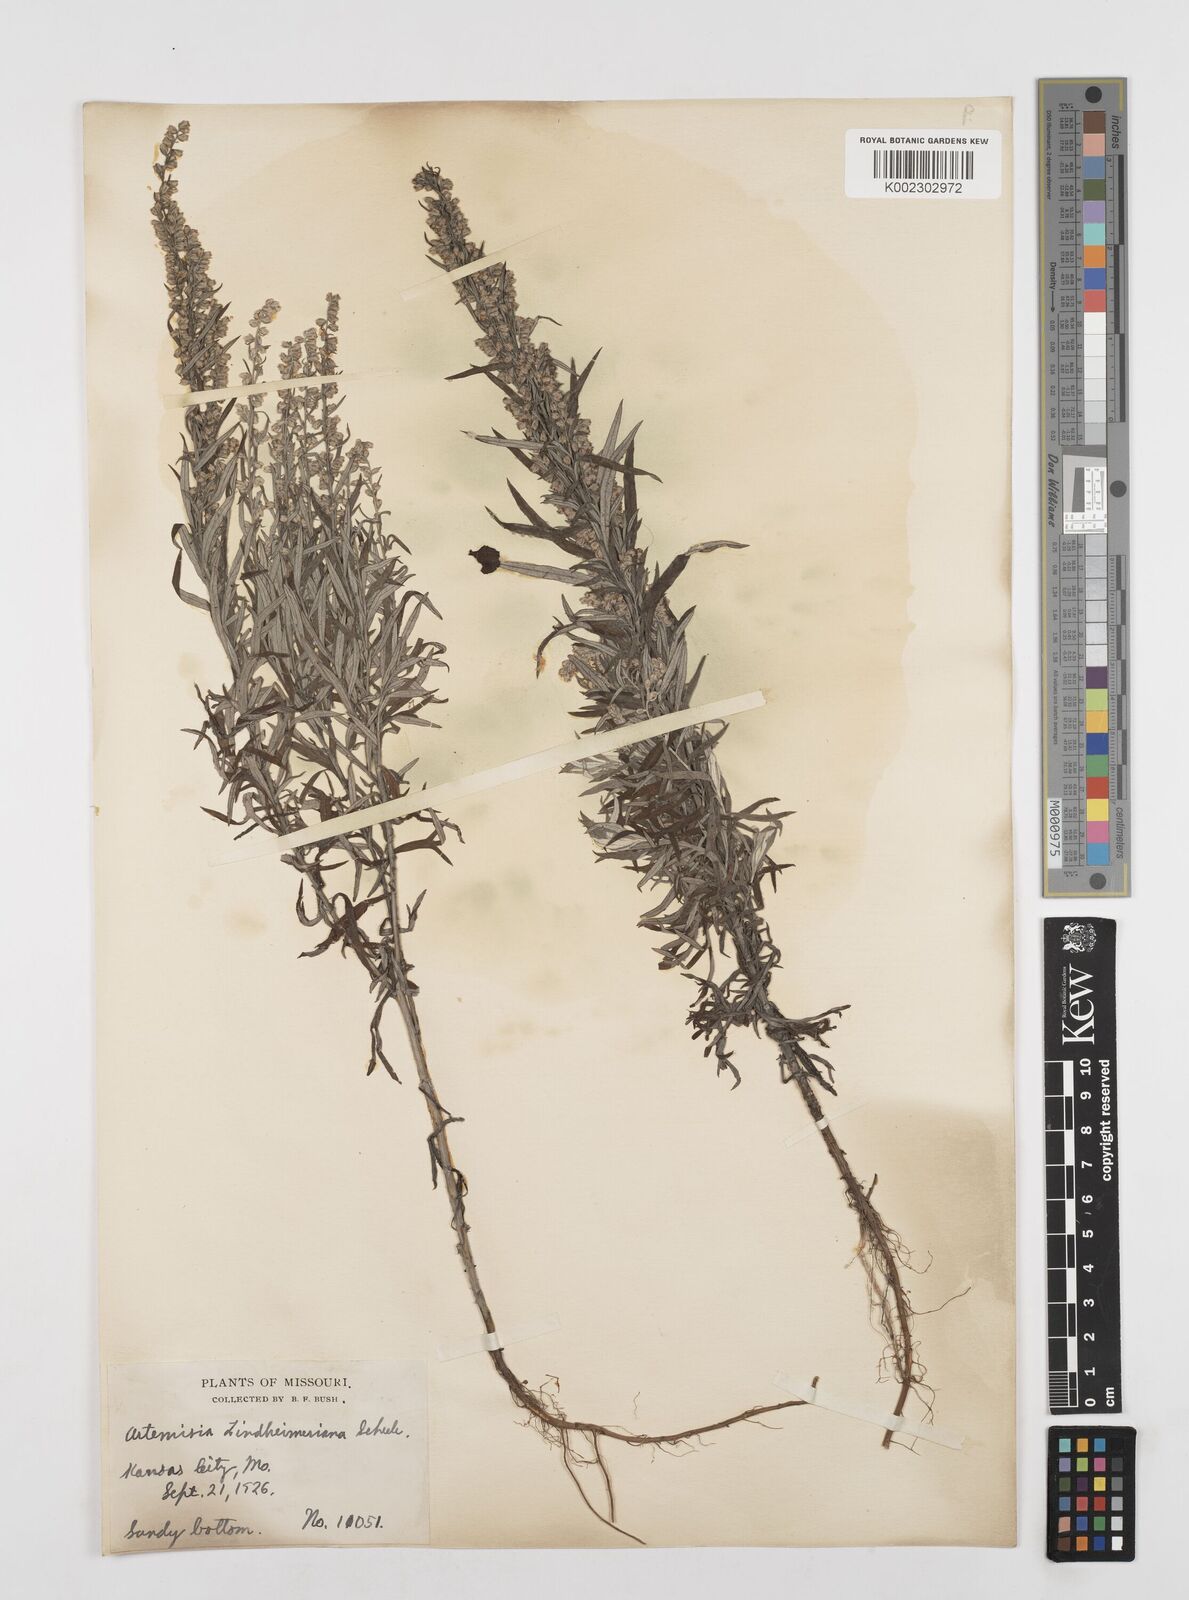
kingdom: Plantae
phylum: Tracheophyta
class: Magnoliopsida
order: Asterales
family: Asteraceae
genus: Artemisia
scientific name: Artemisia ludoviciana
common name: Western mugwort
